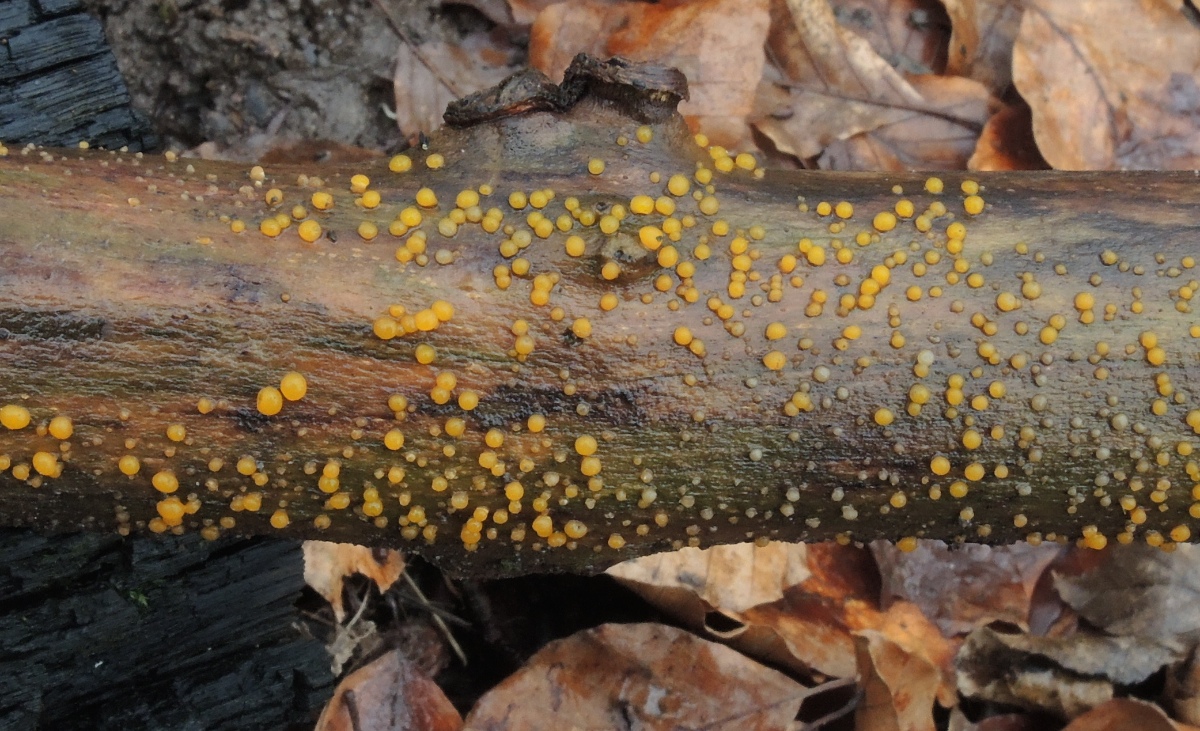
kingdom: Fungi
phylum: Basidiomycota
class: Dacrymycetes
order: Dacrymycetales
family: Dacrymycetaceae
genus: Dacrymyces
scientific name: Dacrymyces capitatus
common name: stilket tåresvamp
